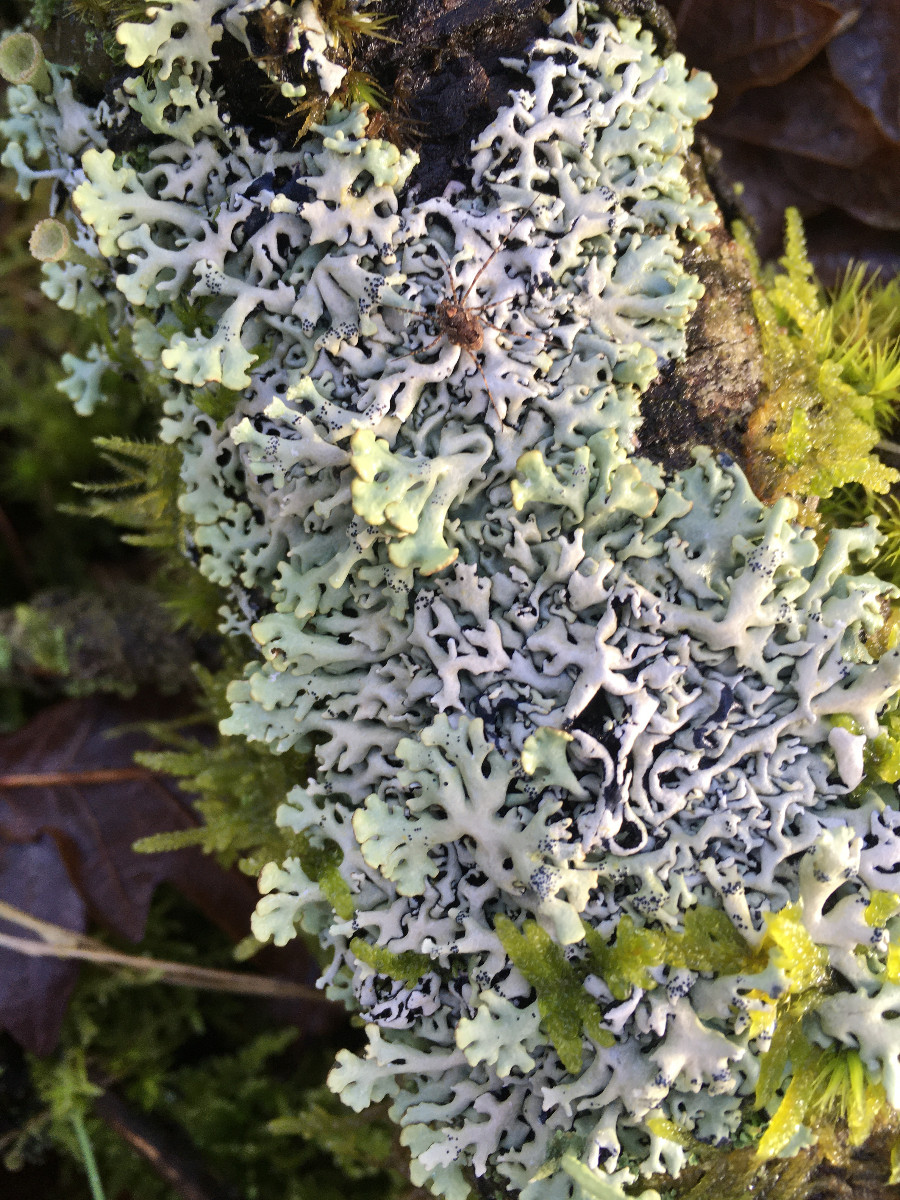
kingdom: Fungi
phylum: Ascomycota
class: Lecanoromycetes
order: Lecanorales
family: Parmeliaceae
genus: Hypogymnia
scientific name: Hypogymnia physodes
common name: almindelig kvistlav
